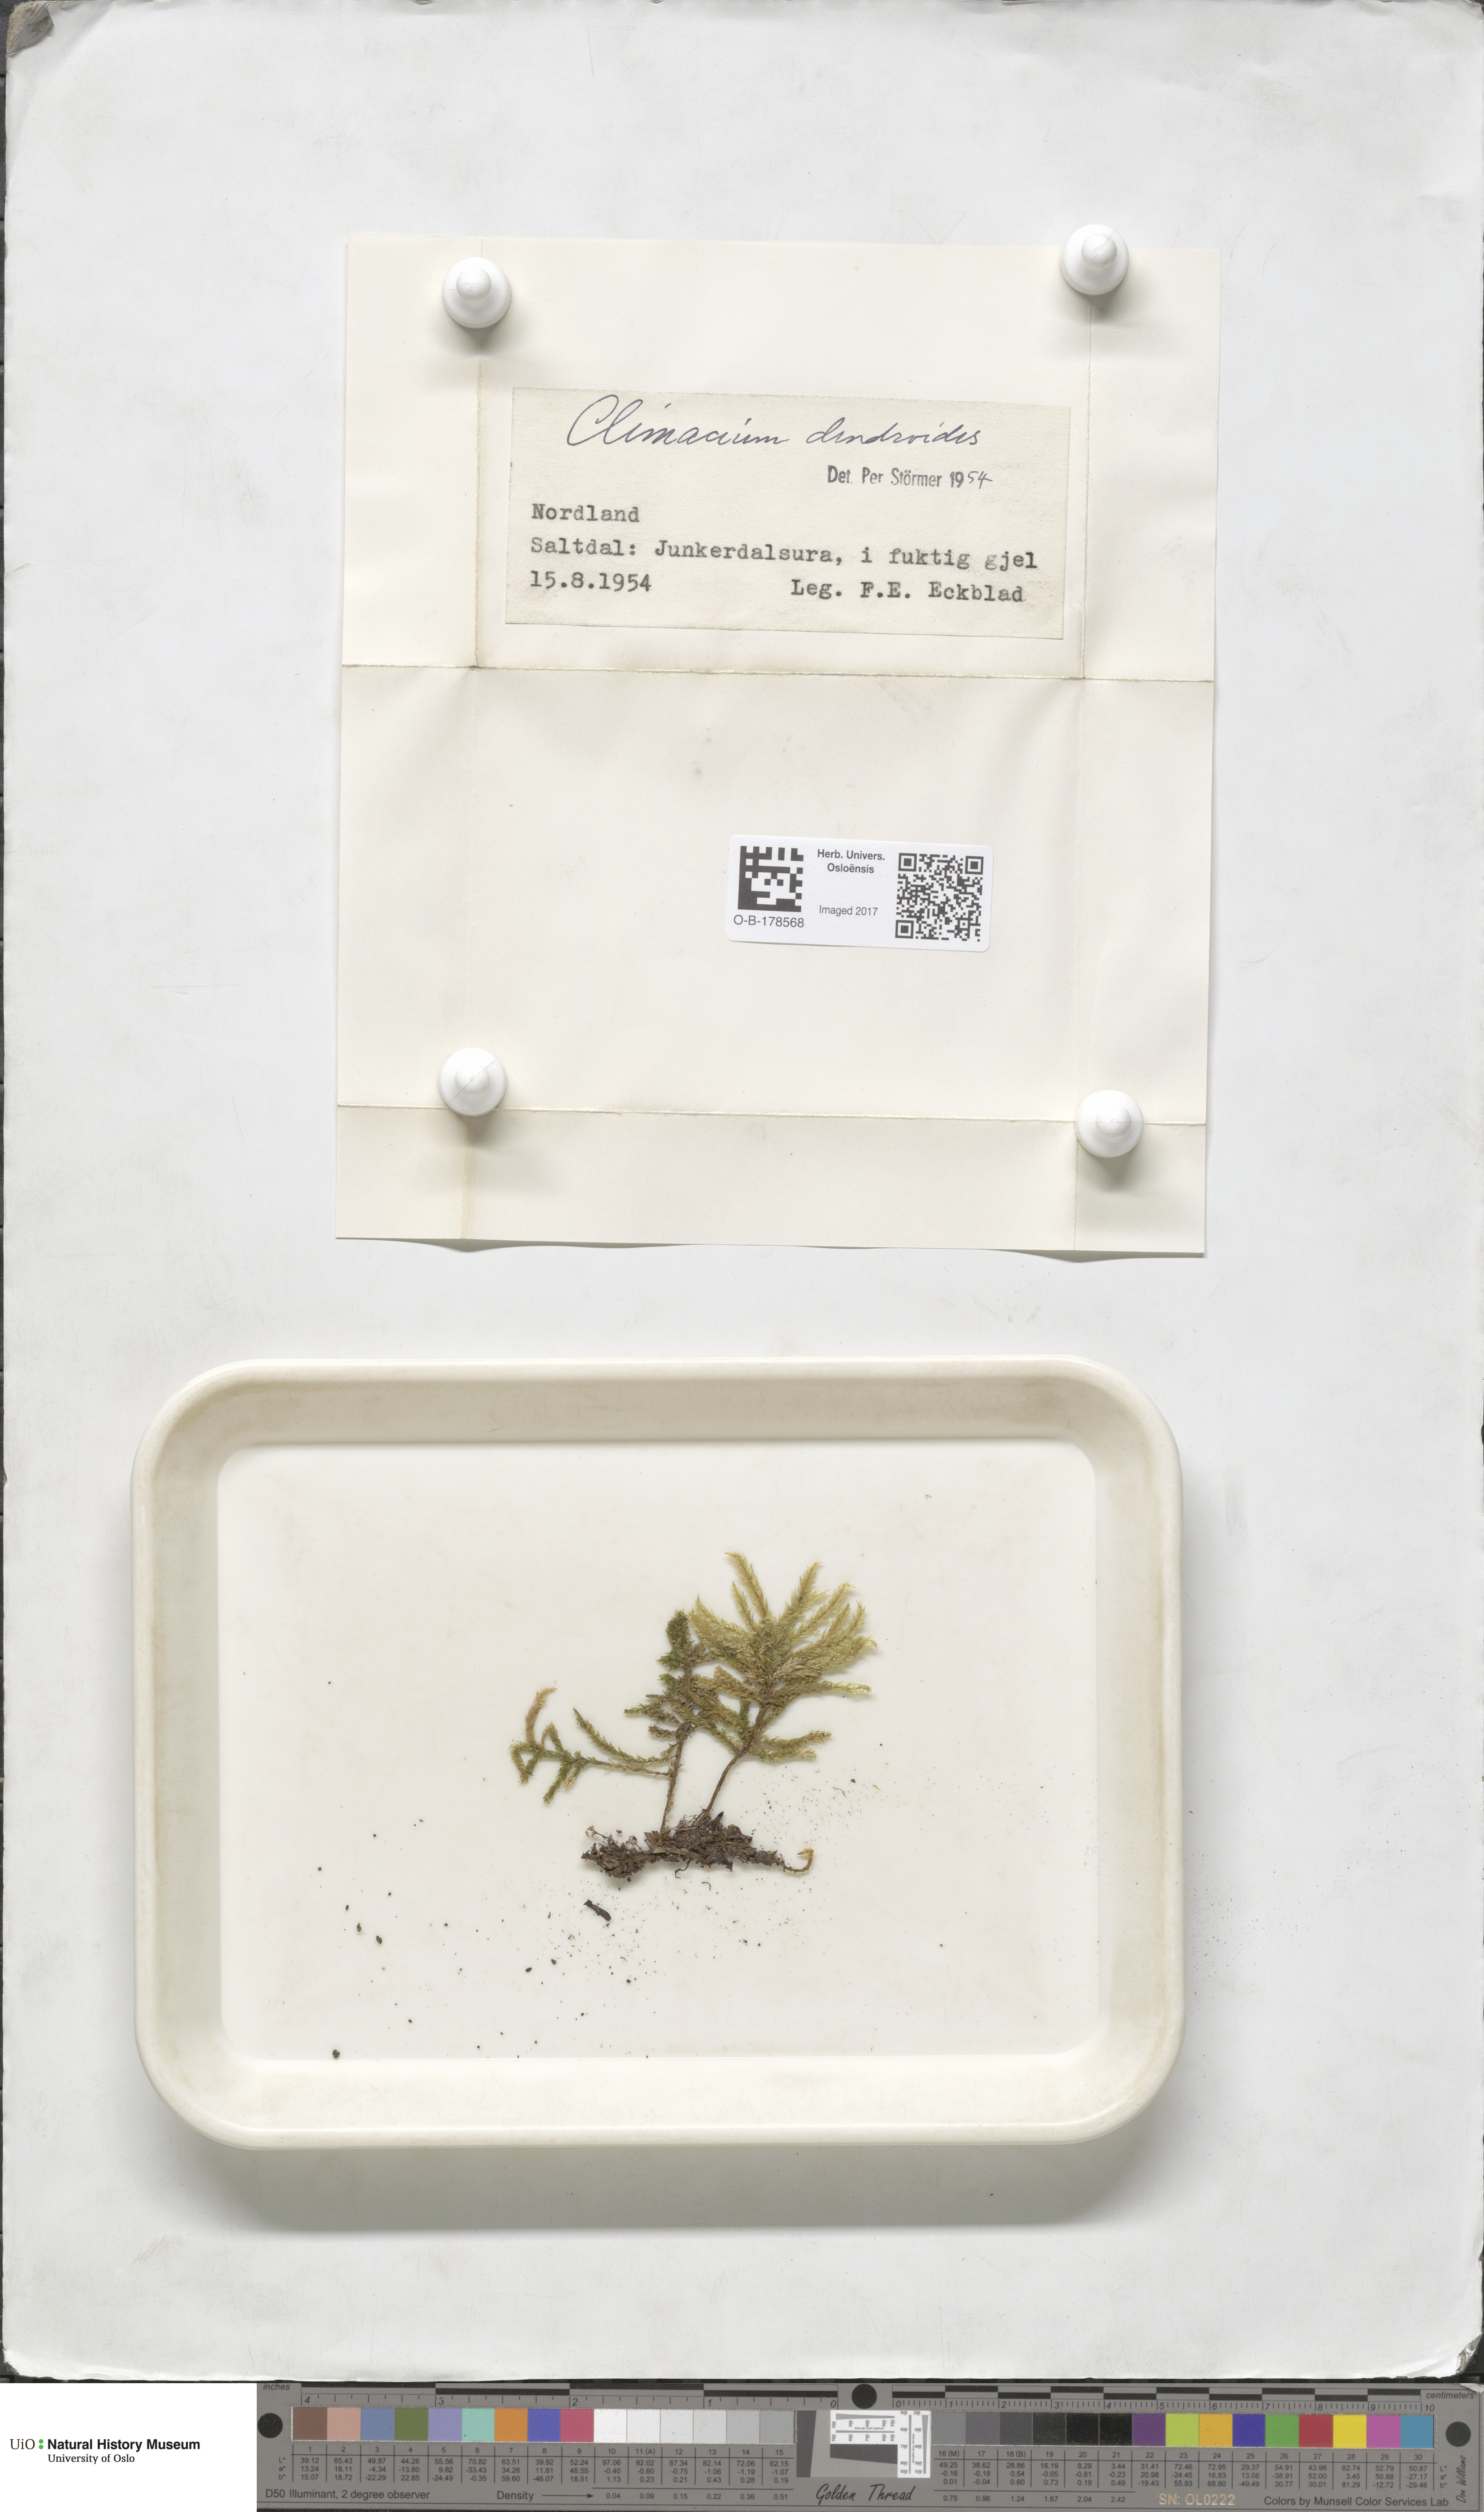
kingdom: Plantae
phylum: Bryophyta
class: Bryopsida
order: Hypnales
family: Climaciaceae
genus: Climacium
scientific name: Climacium dendroides
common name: Northern tree moss
